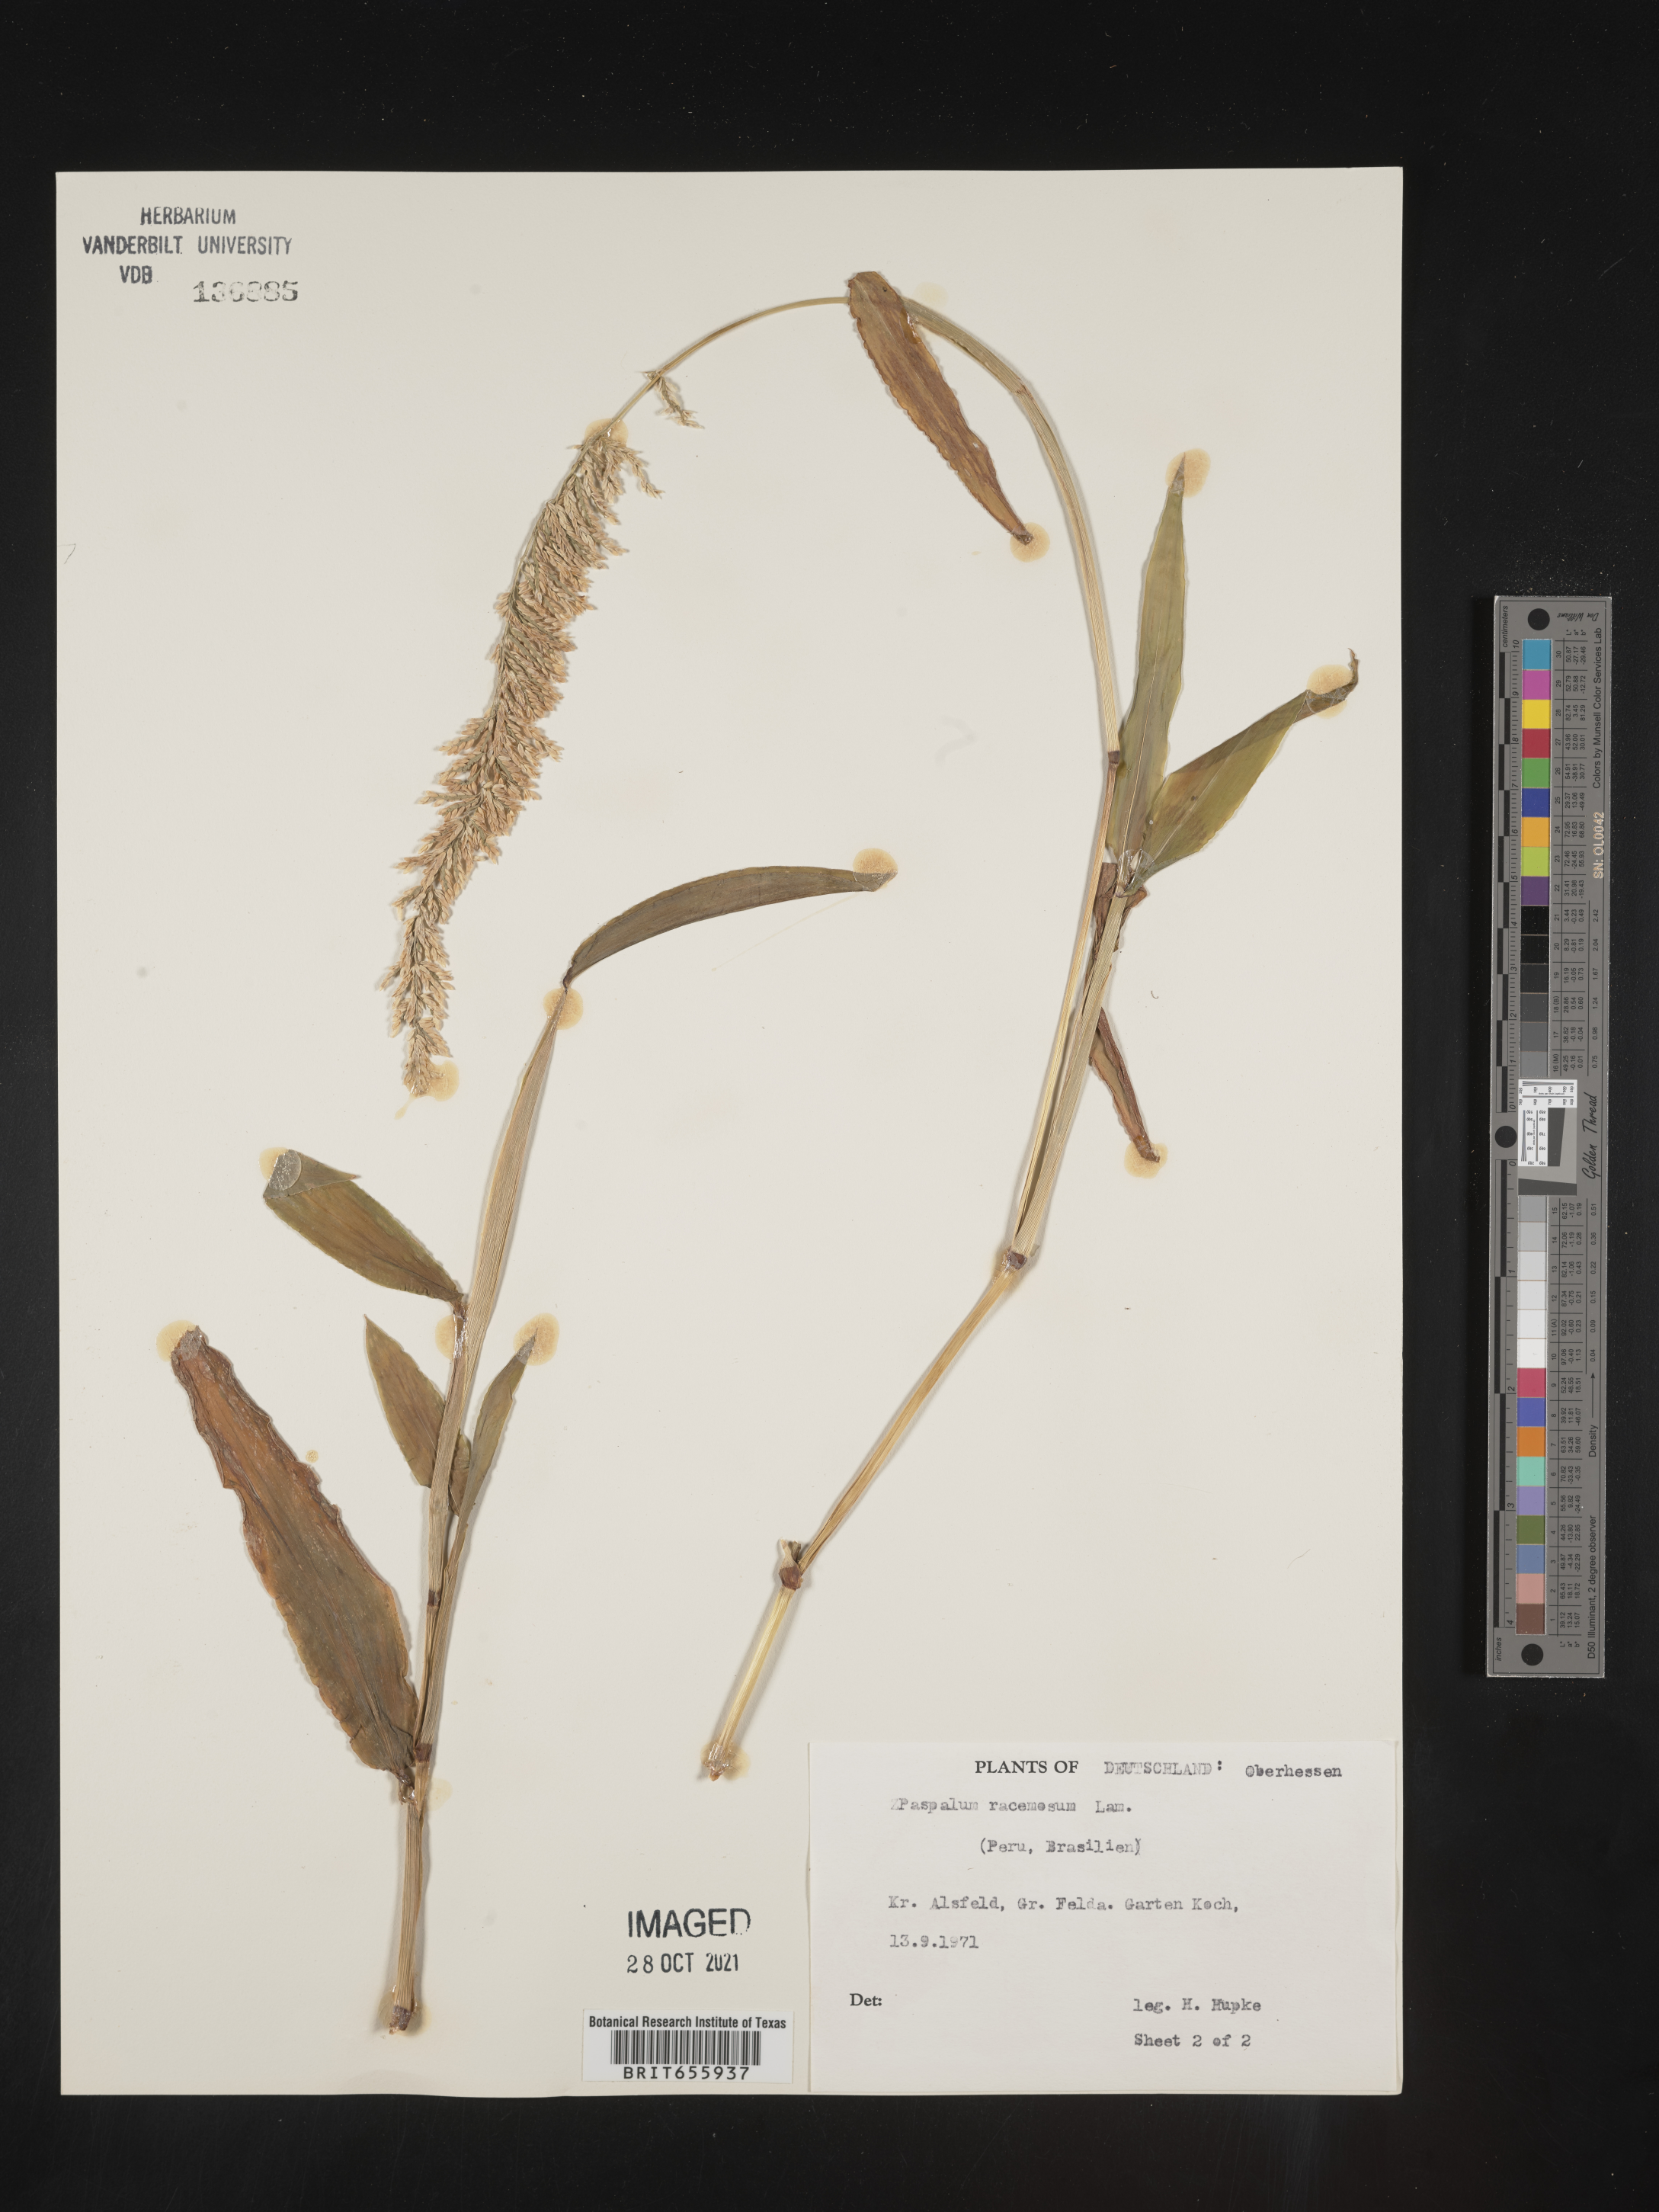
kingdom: Plantae
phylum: Tracheophyta
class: Liliopsida
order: Poales
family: Poaceae
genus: Paspalum
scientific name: Paspalum
